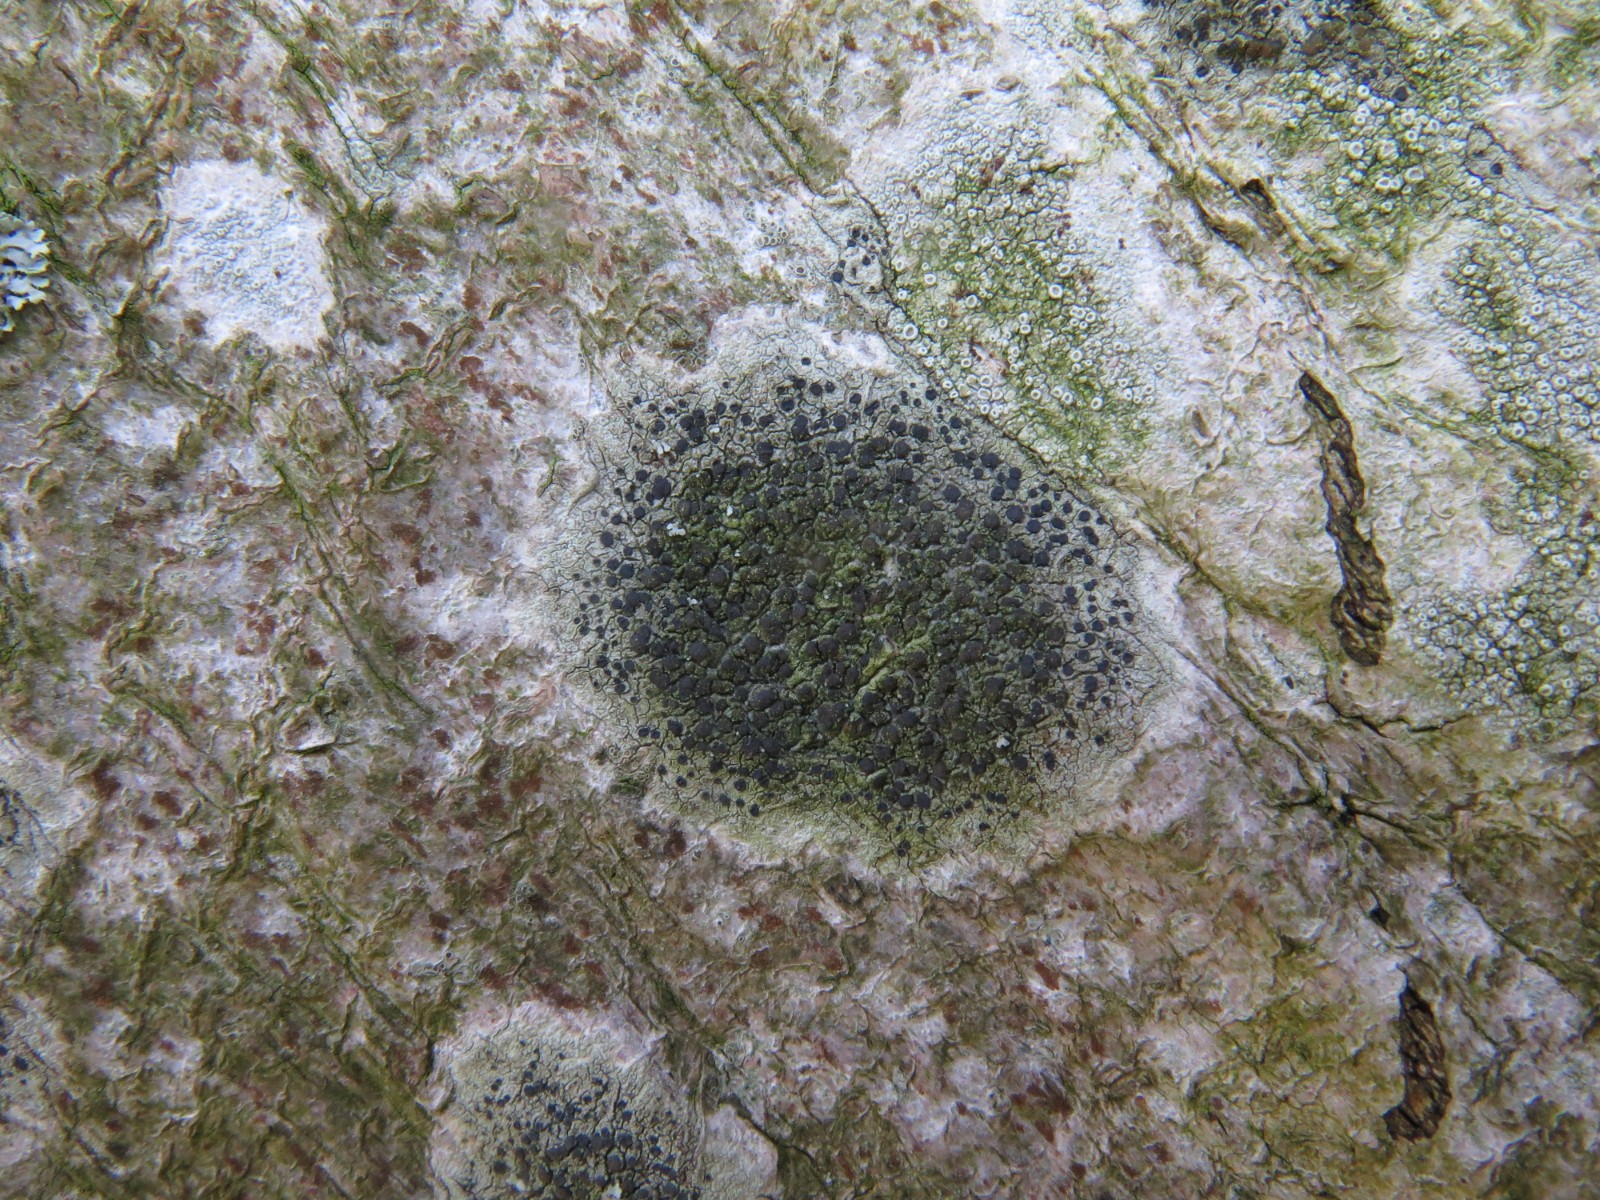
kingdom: Fungi
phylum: Ascomycota
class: Lecanoromycetes
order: Lecanorales
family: Lecanoraceae
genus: Lecidella
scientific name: Lecidella elaeochroma
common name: grågrøn skivelav
